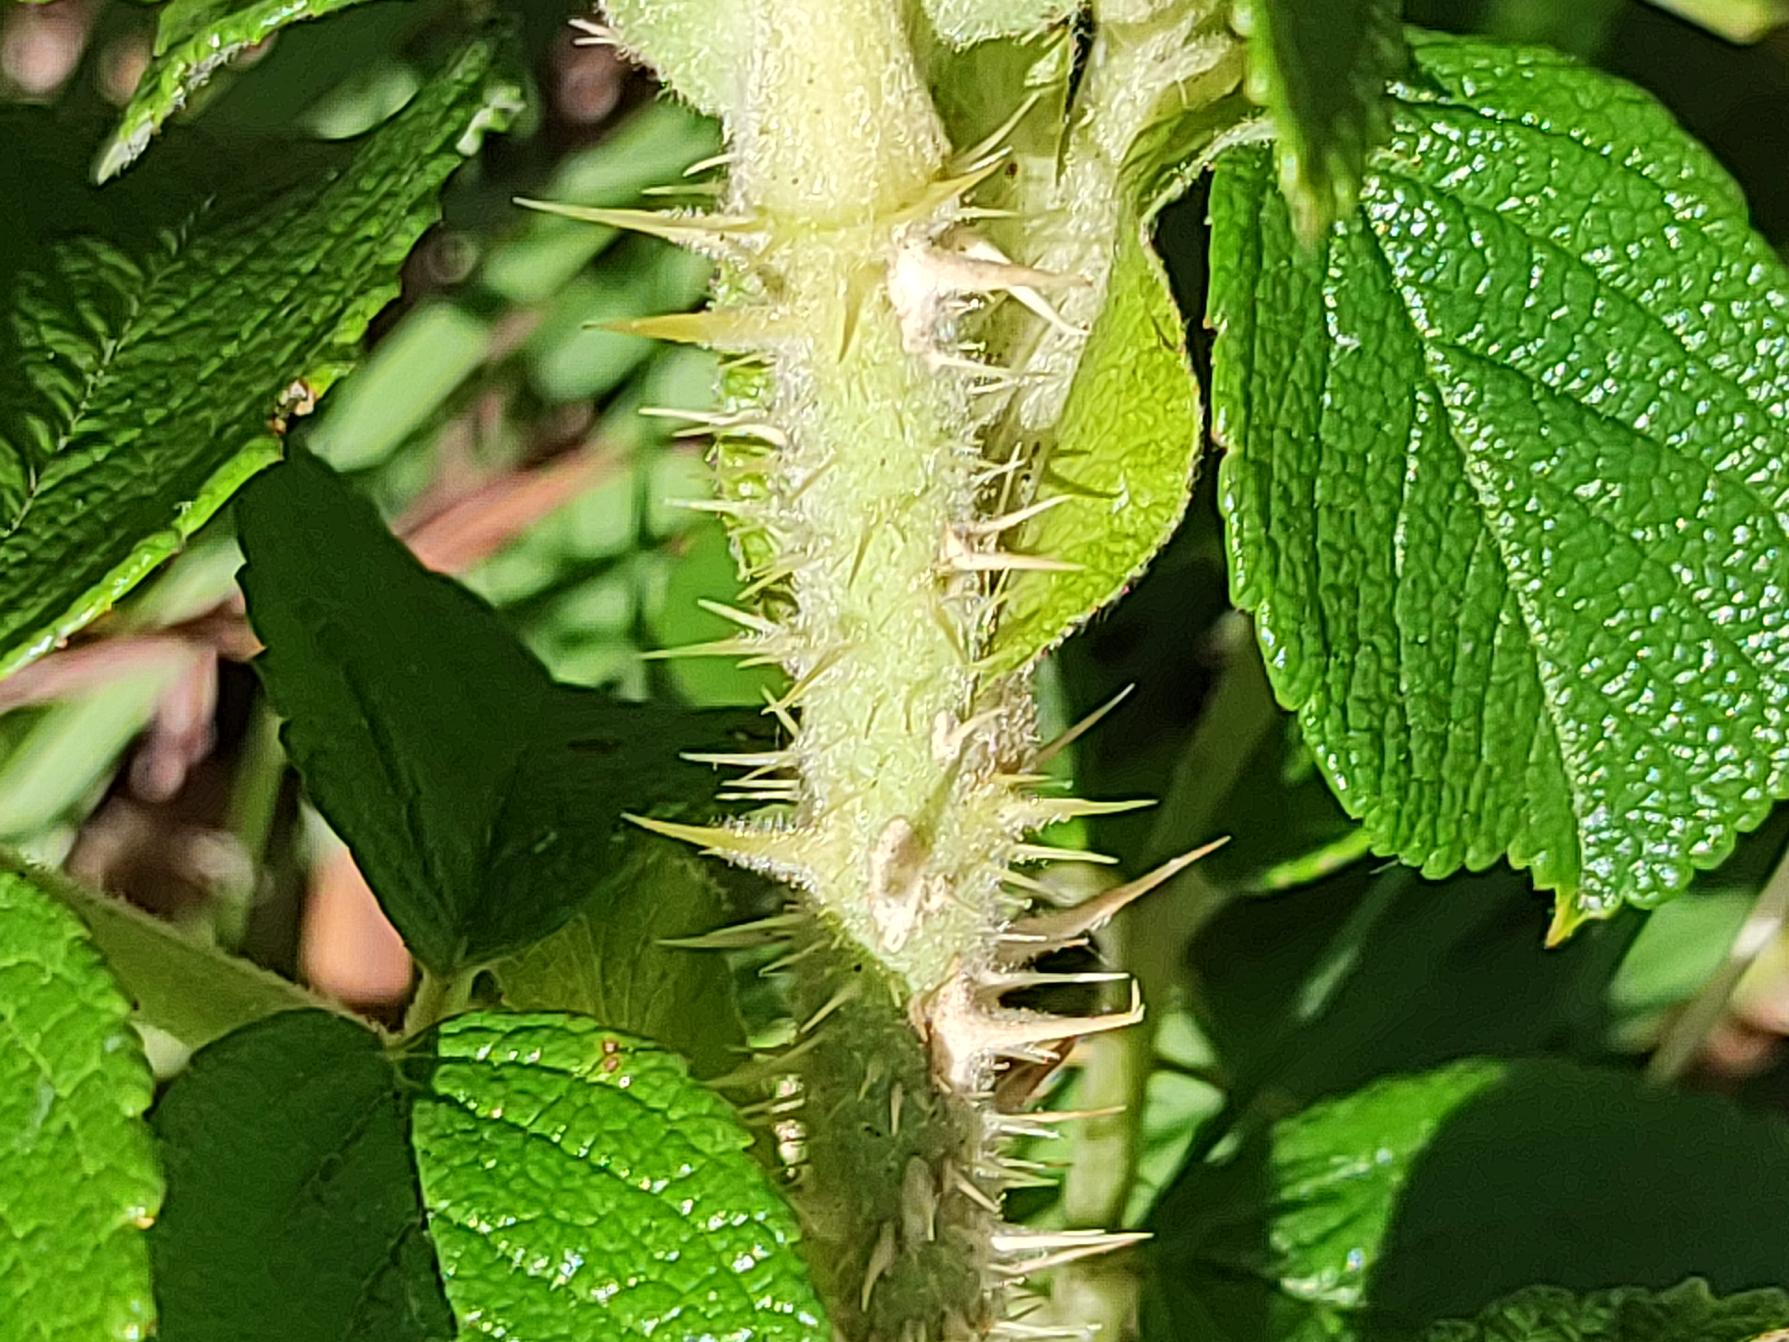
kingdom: Plantae
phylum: Tracheophyta
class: Magnoliopsida
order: Rosales
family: Rosaceae
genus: Rosa
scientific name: Rosa rugosa
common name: Rynket rose
